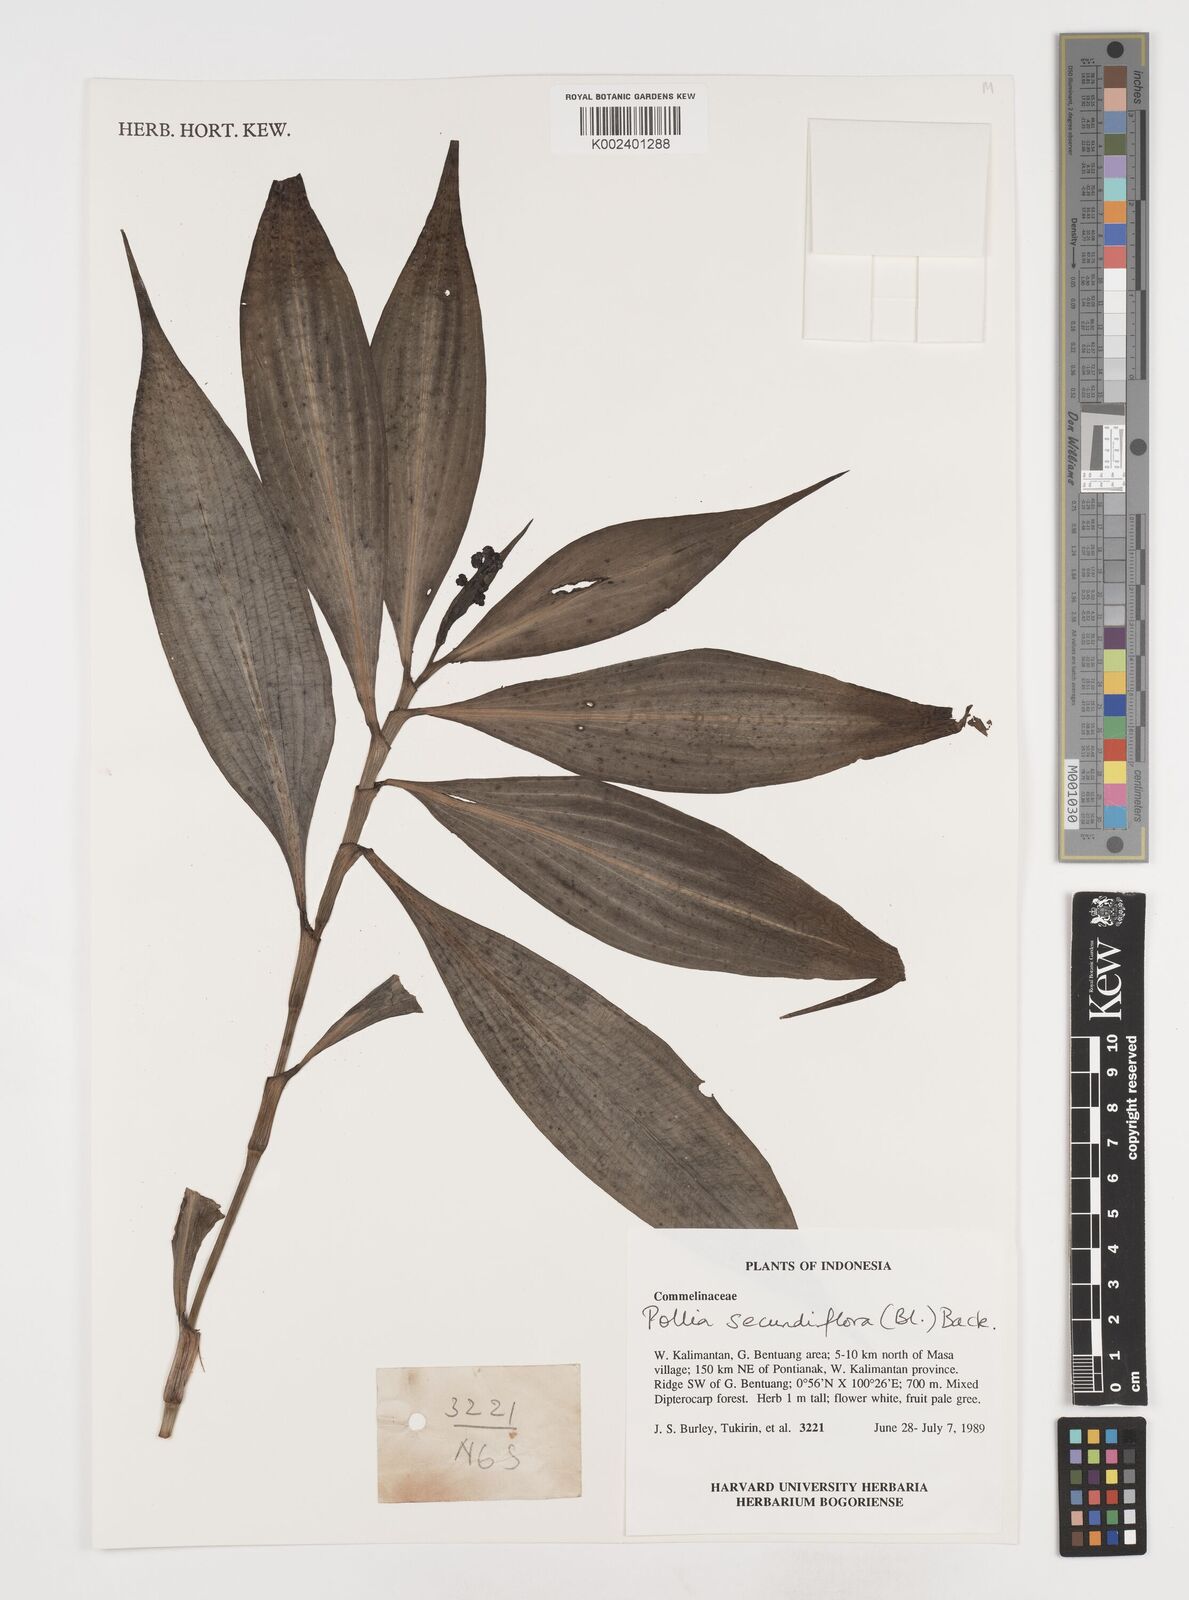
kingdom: Plantae
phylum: Tracheophyta
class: Liliopsida
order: Commelinales
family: Commelinaceae
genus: Pollia
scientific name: Pollia secundiflora
